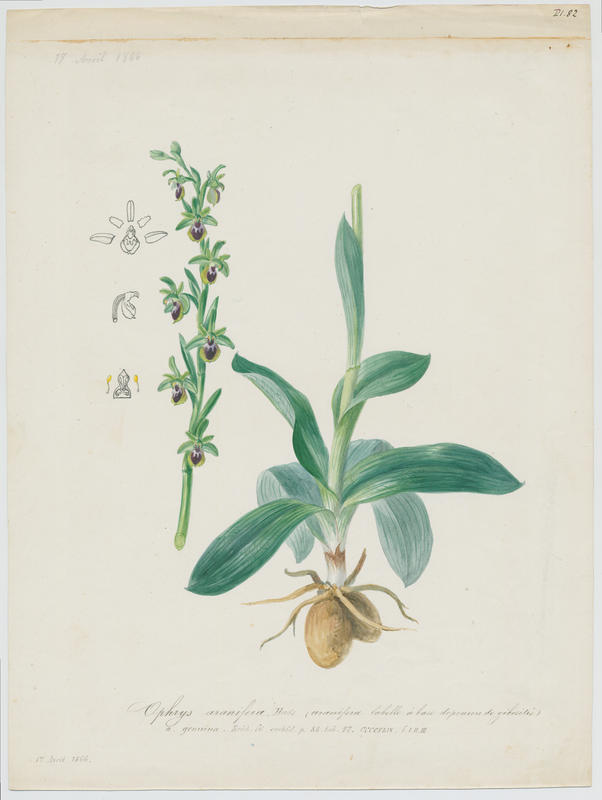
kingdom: Plantae
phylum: Tracheophyta
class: Liliopsida
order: Asparagales
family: Orchidaceae
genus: Ophrys
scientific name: Ophrys sphegodes
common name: Early spider-orchid
